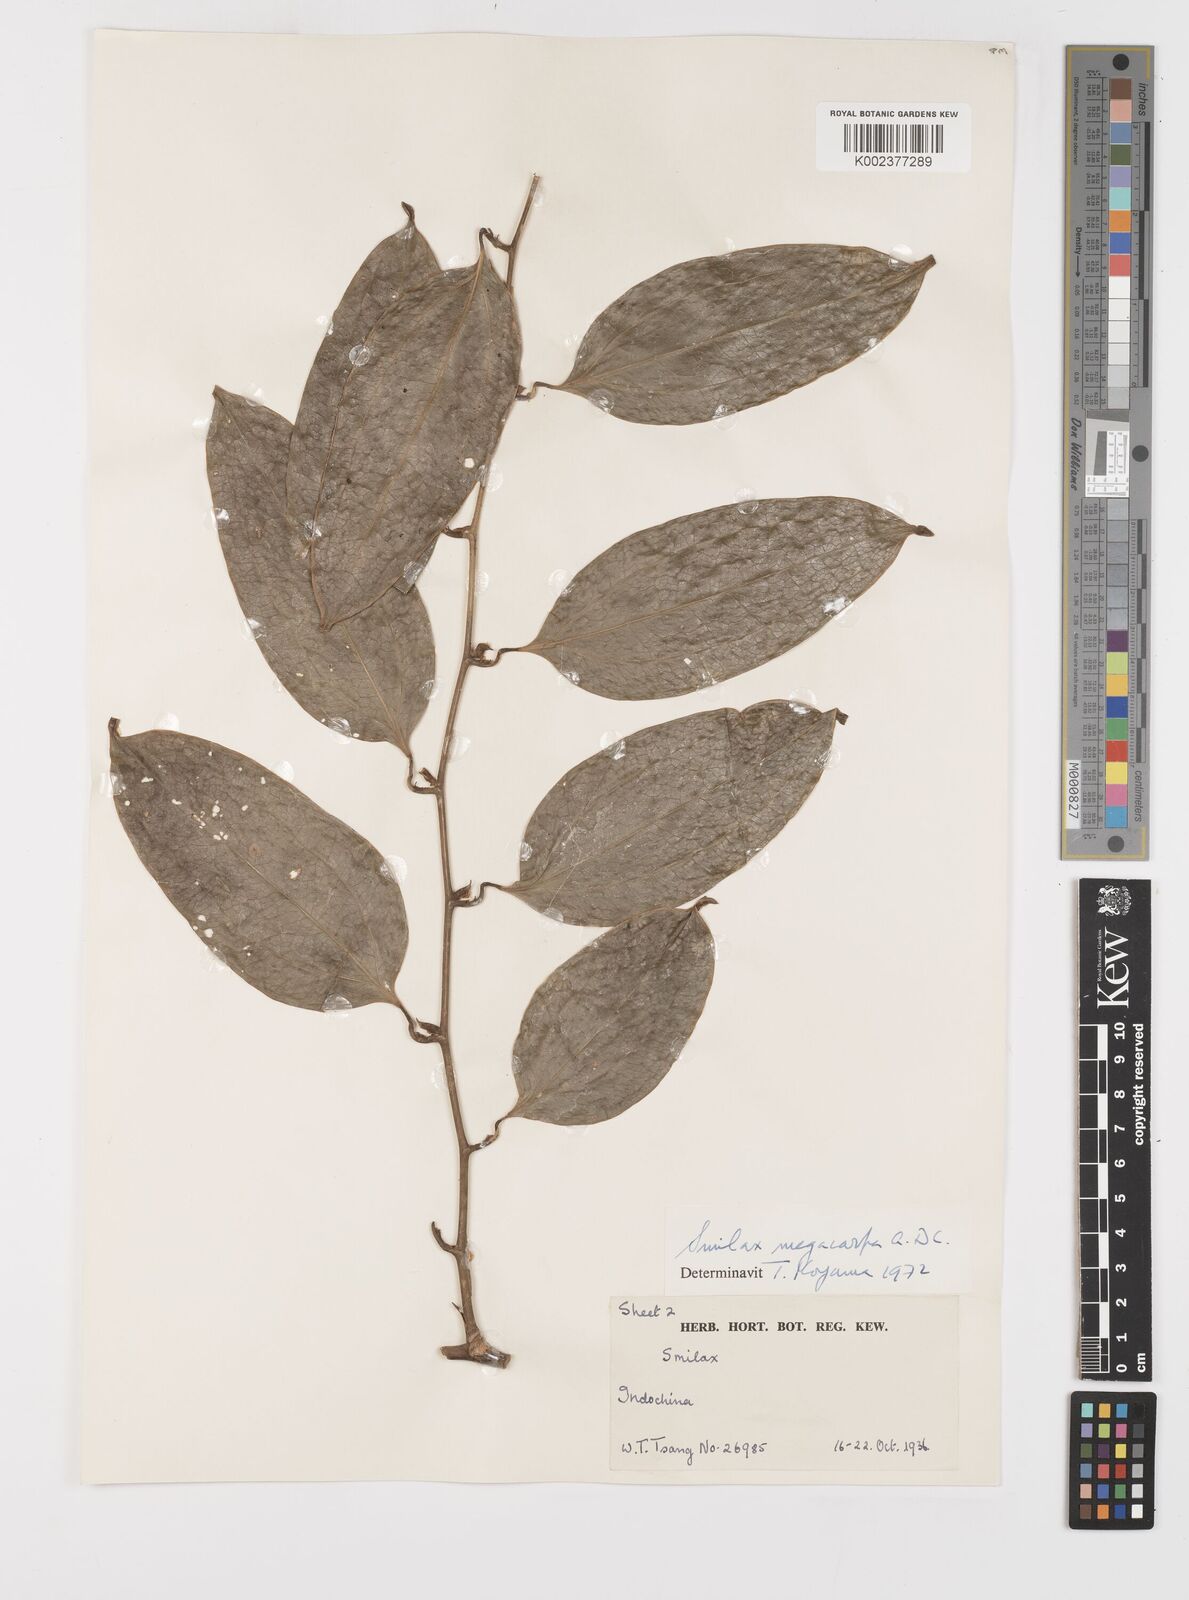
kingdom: Plantae
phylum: Tracheophyta
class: Liliopsida
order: Liliales
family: Smilacaceae
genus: Smilax
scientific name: Smilax megacarpa
